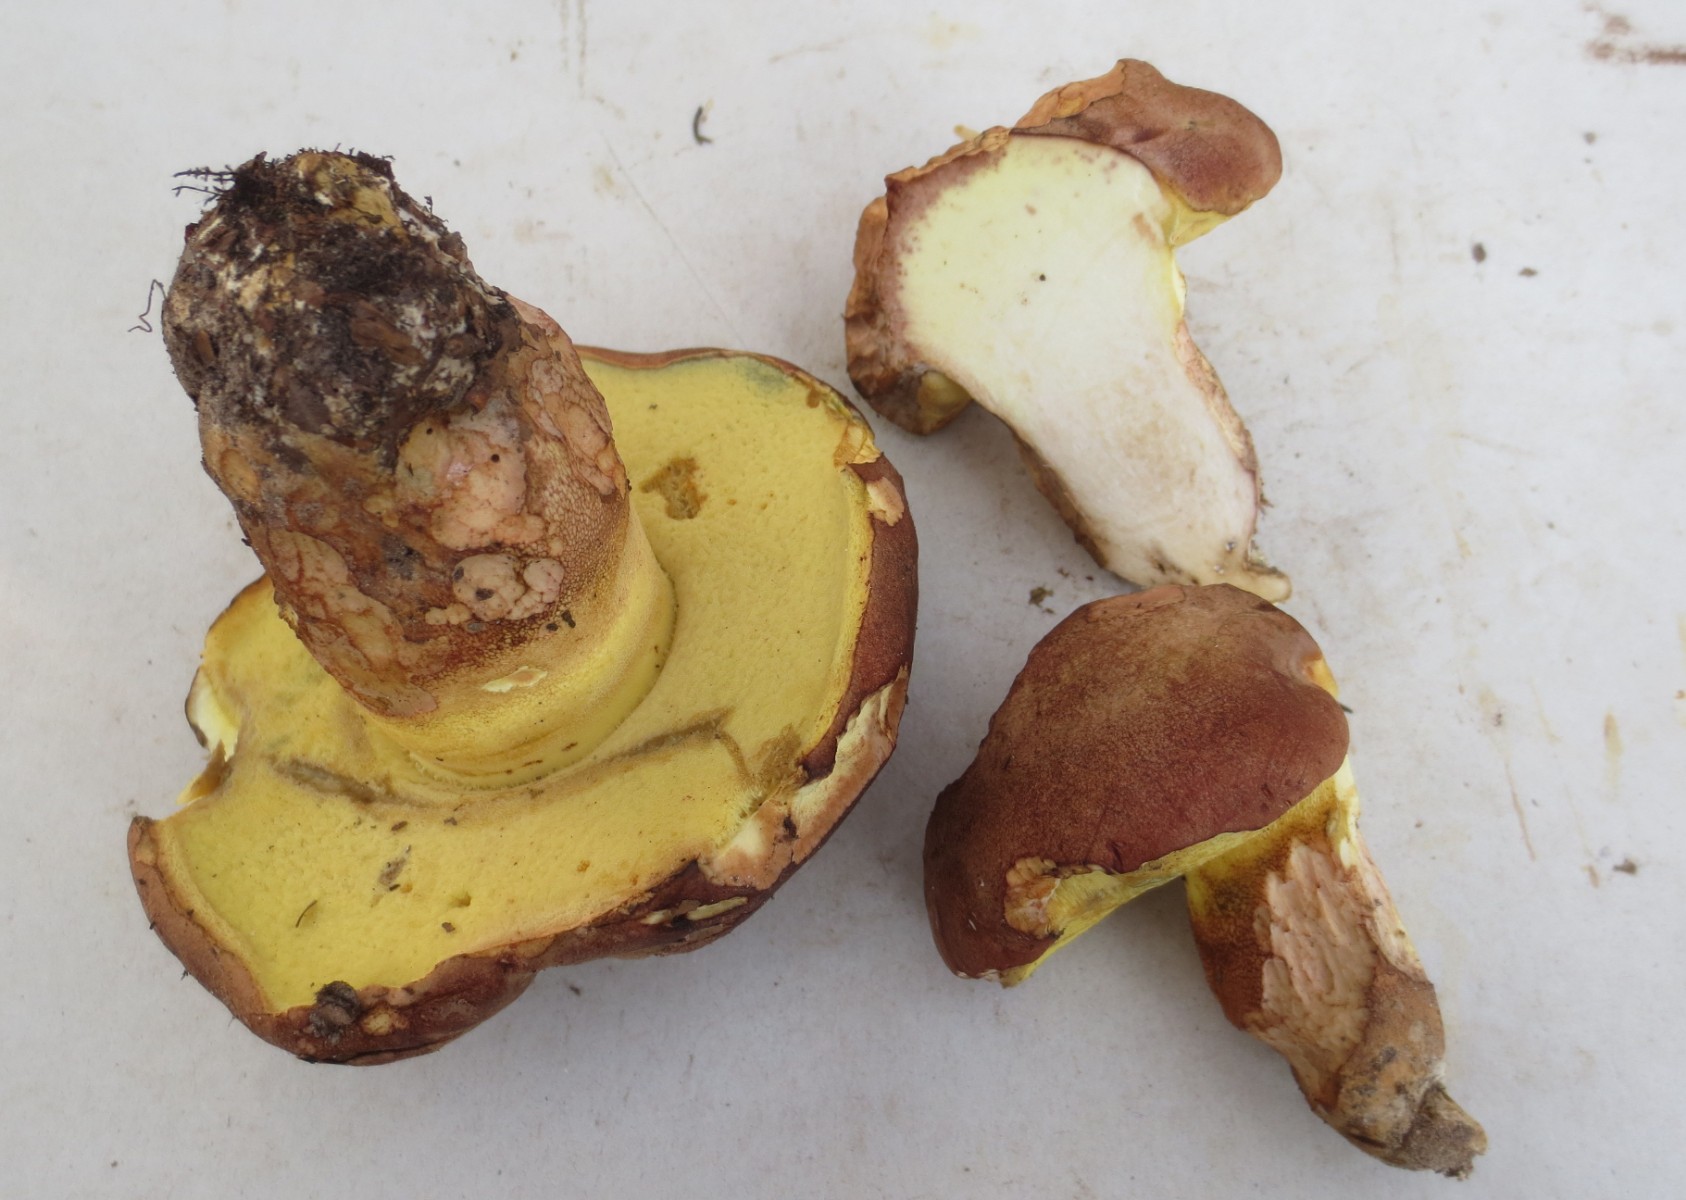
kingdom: Fungi
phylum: Basidiomycota
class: Agaricomycetes
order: Boletales
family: Boletaceae
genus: Butyriboletus
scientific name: Butyriboletus appendiculatus
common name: tenstokket rørhat
